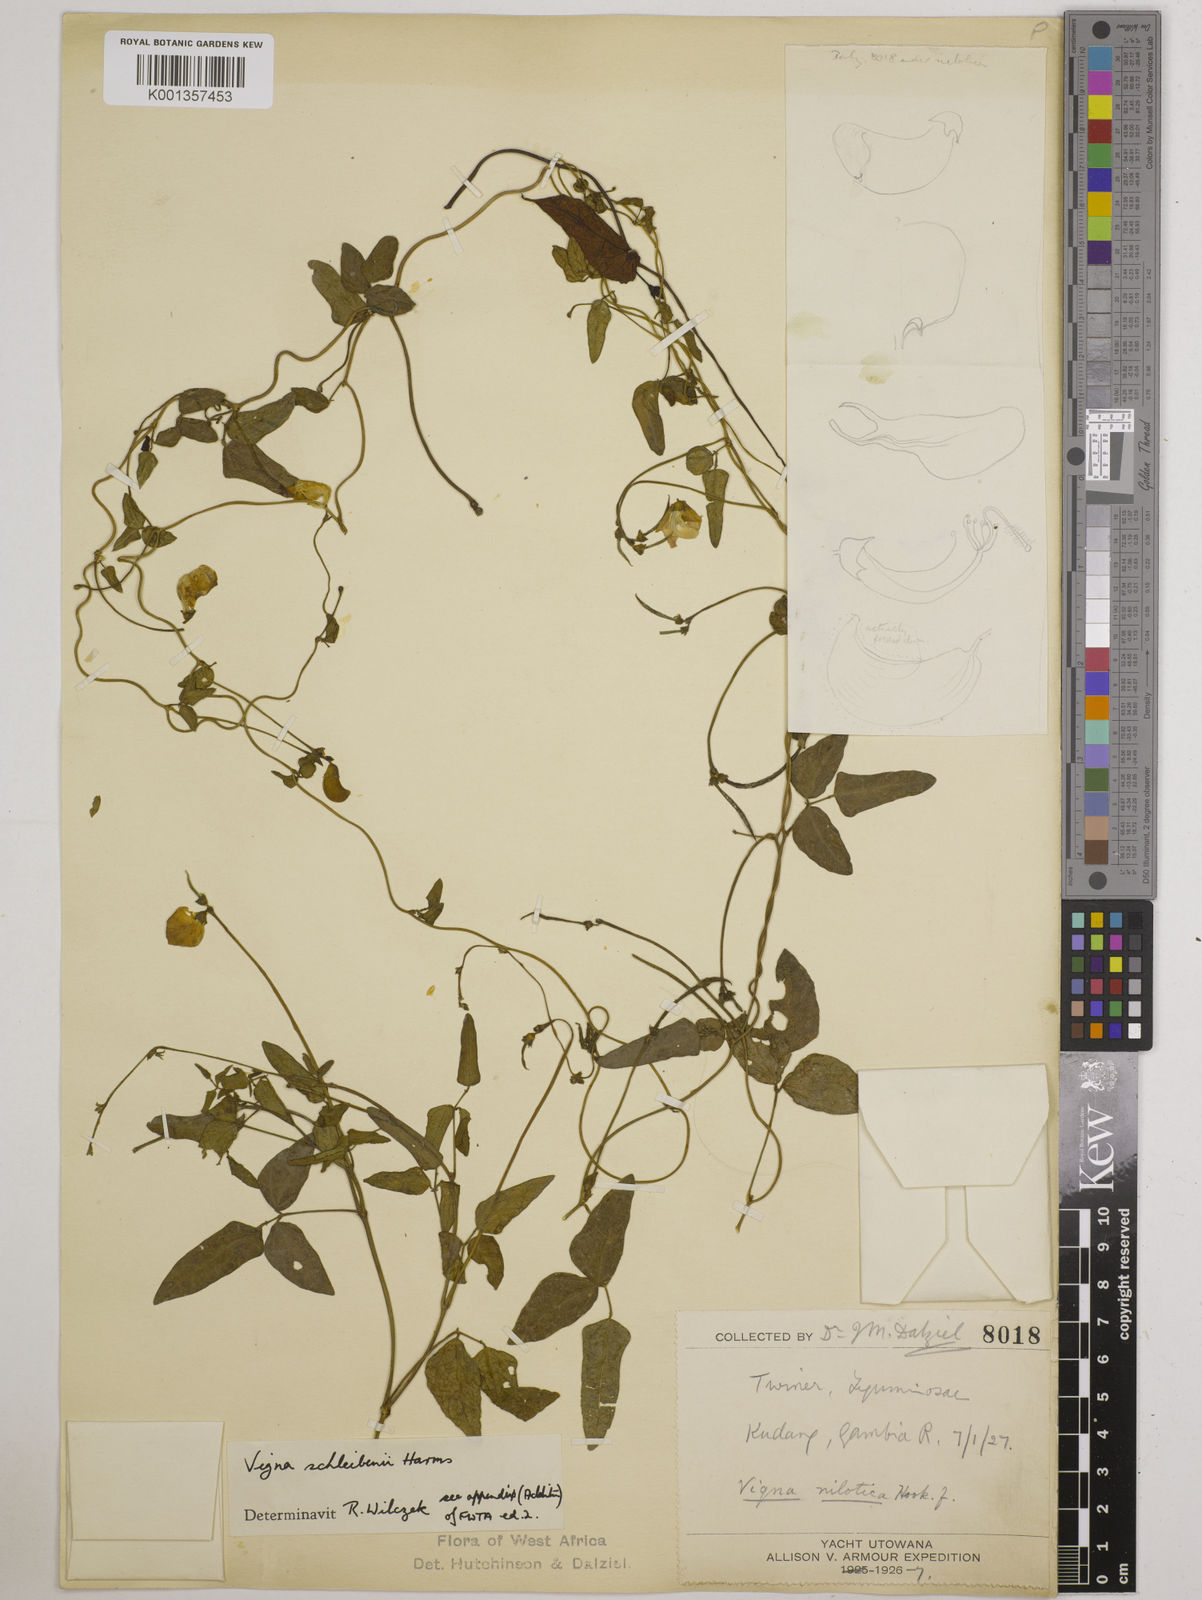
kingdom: Plantae
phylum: Tracheophyta
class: Magnoliopsida
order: Fabales
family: Fabaceae
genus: Vigna
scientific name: Vigna kirkii
